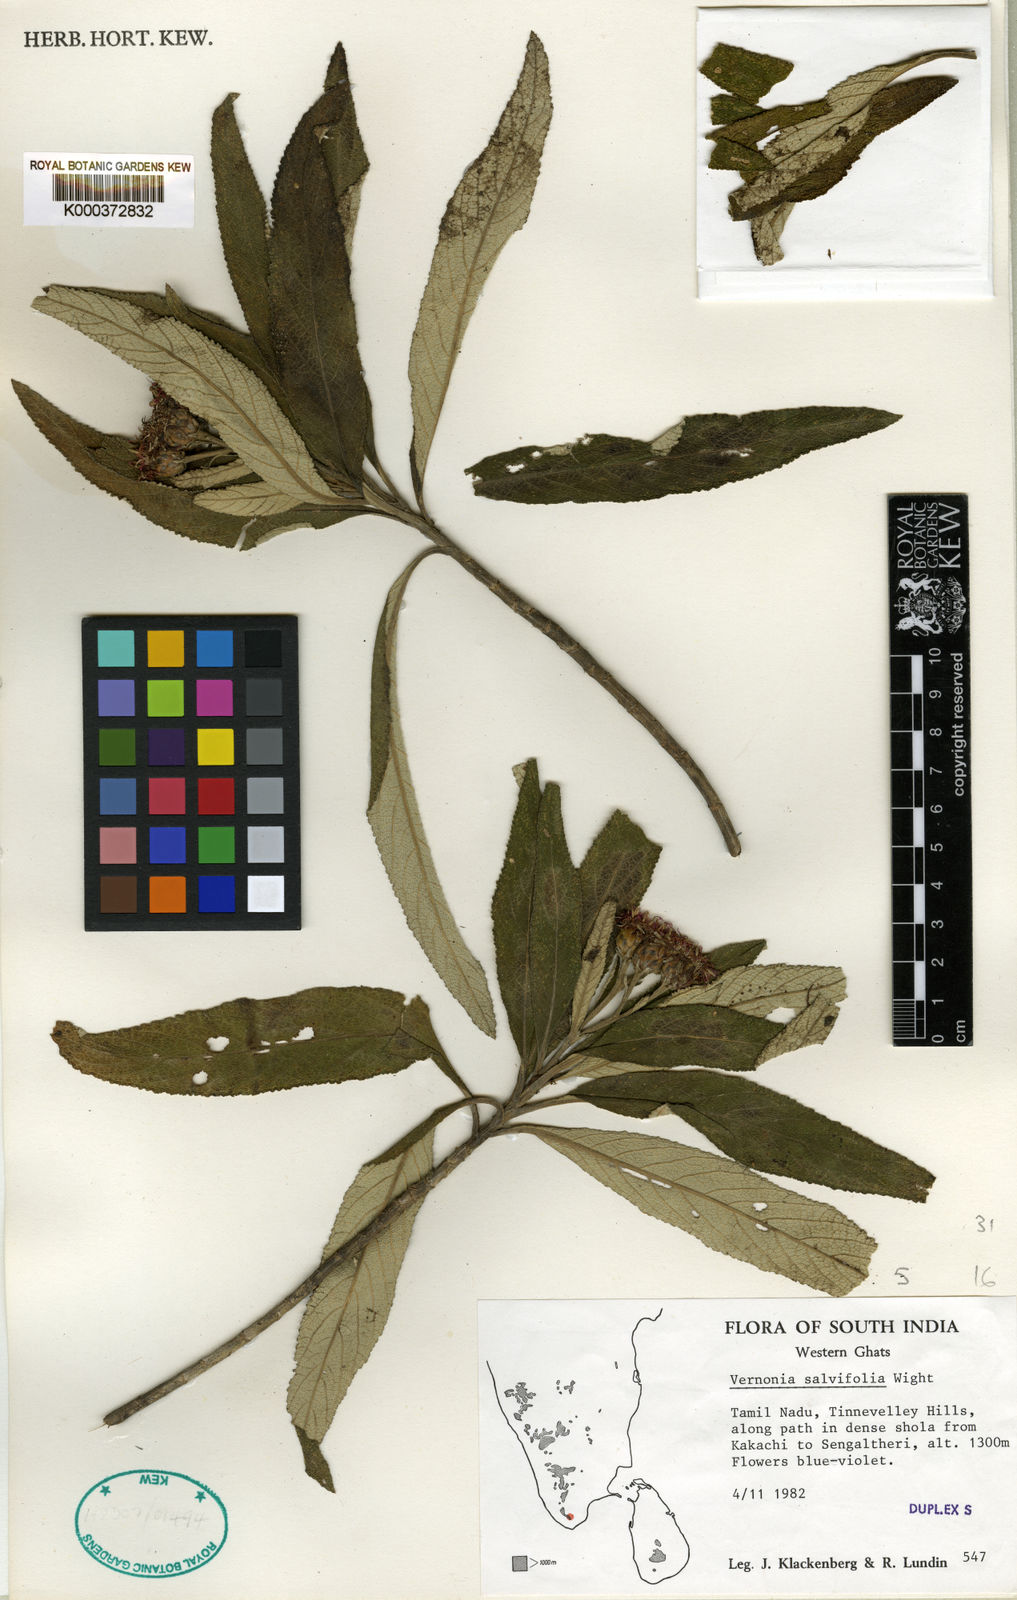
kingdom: Plantae
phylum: Tracheophyta
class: Magnoliopsida
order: Asterales
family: Asteraceae
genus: Uniyala
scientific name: Uniyala salviifolia
